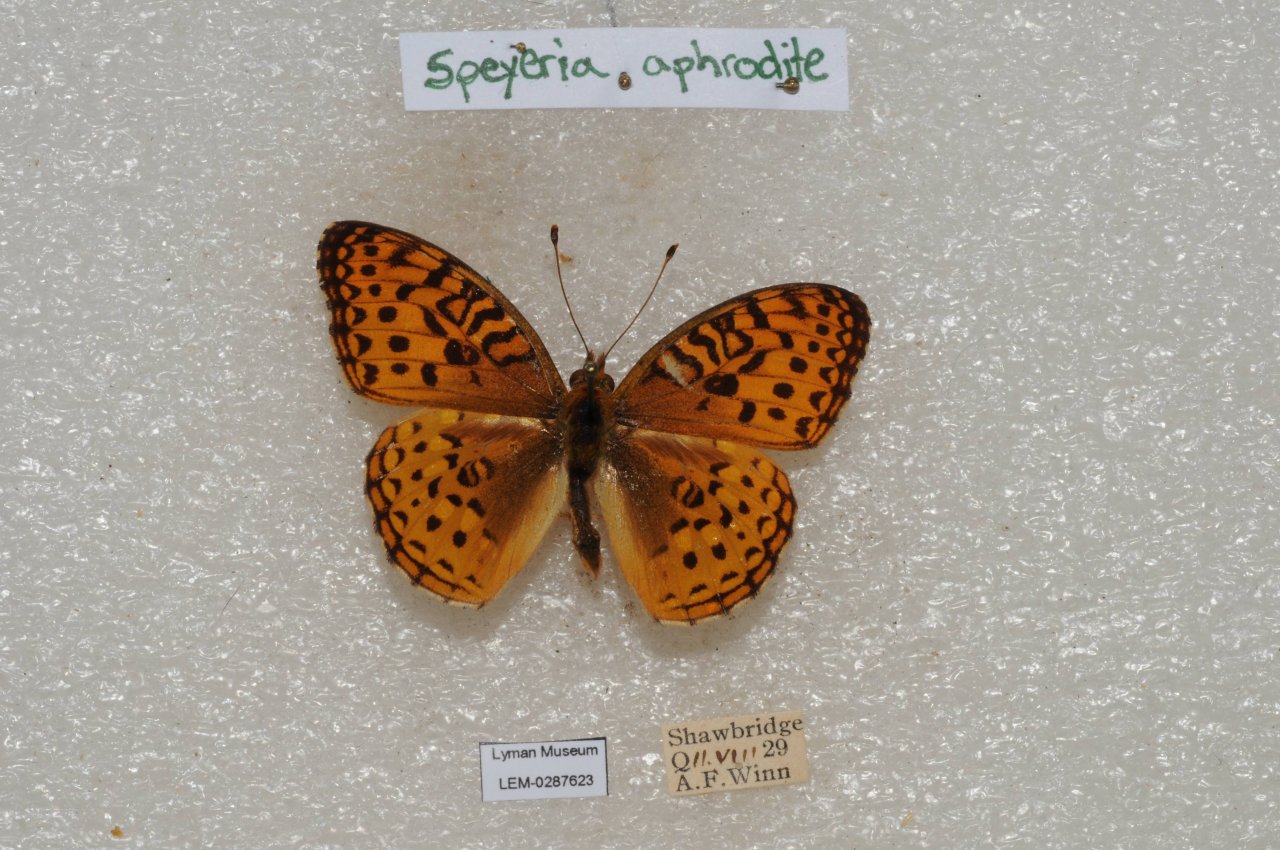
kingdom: Animalia
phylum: Arthropoda
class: Insecta
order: Lepidoptera
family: Nymphalidae
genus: Speyeria
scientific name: Speyeria aphrodite
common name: Aphrodite Fritillary
